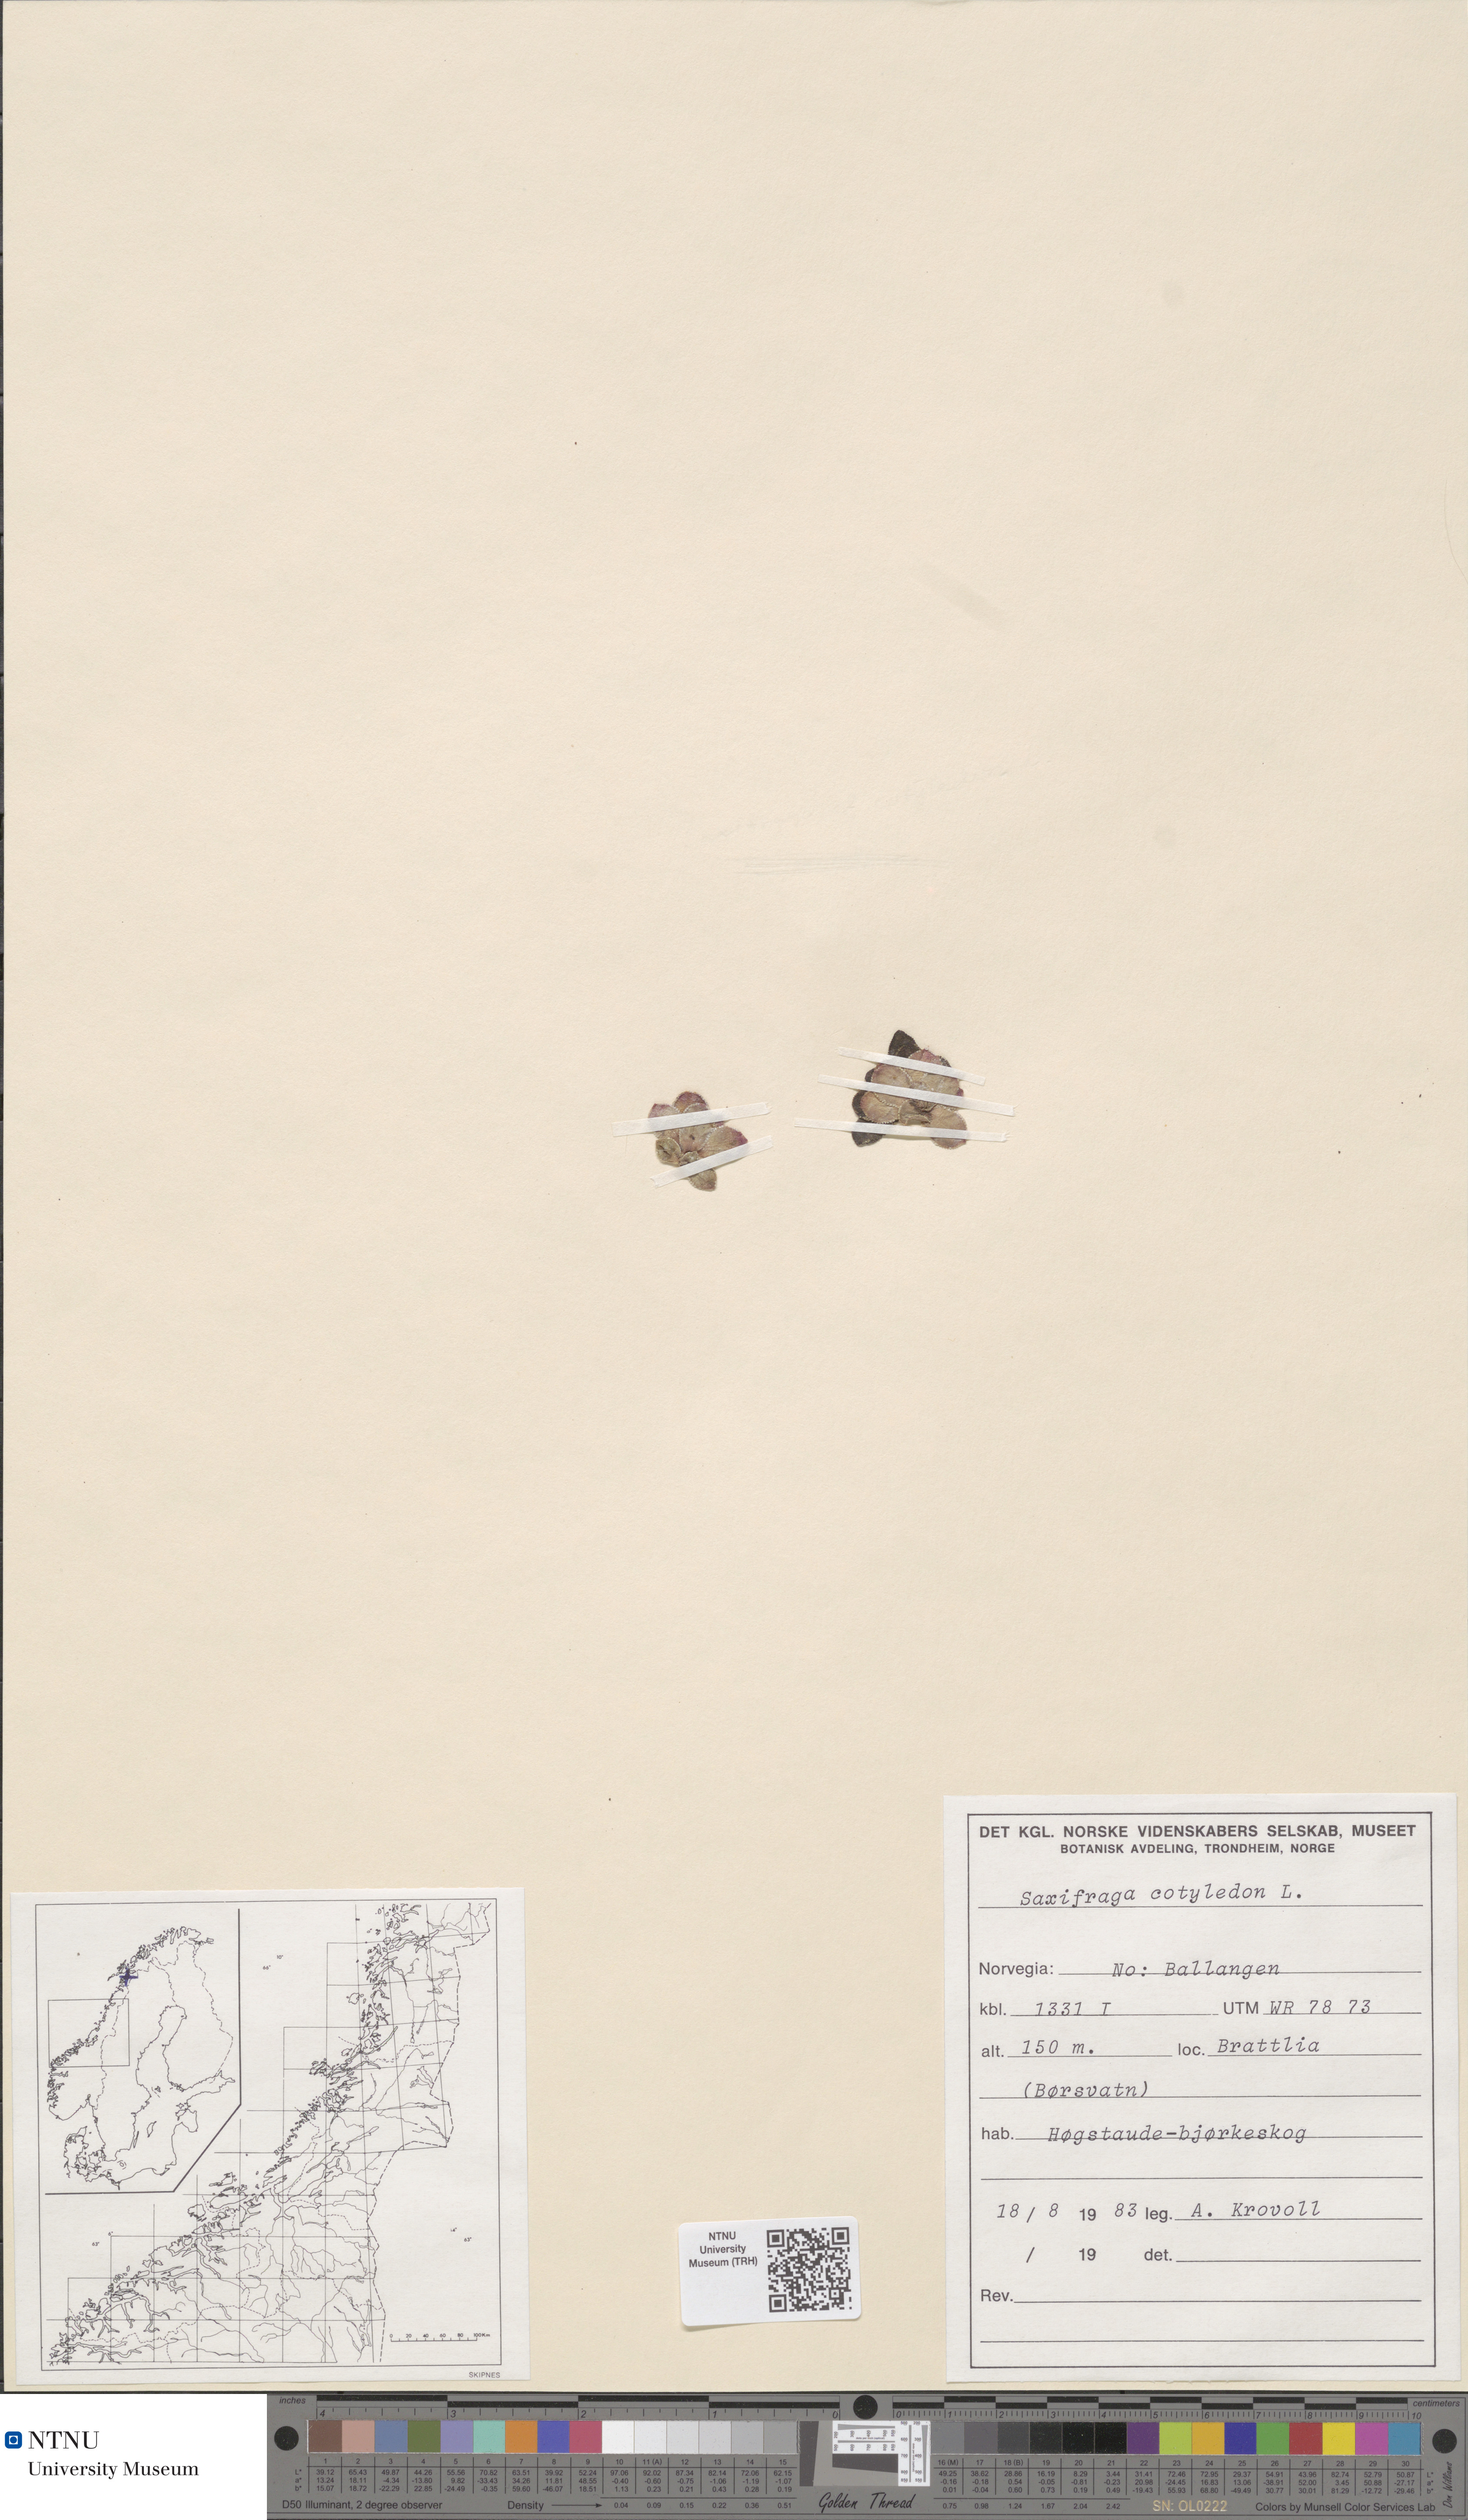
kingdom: Plantae
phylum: Tracheophyta
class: Magnoliopsida
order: Saxifragales
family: Saxifragaceae
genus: Saxifraga
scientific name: Saxifraga cotyledon
